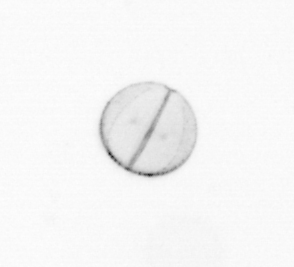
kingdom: Chromista
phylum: Ochrophyta
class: Bacillariophyceae
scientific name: Bacillariophyceae
